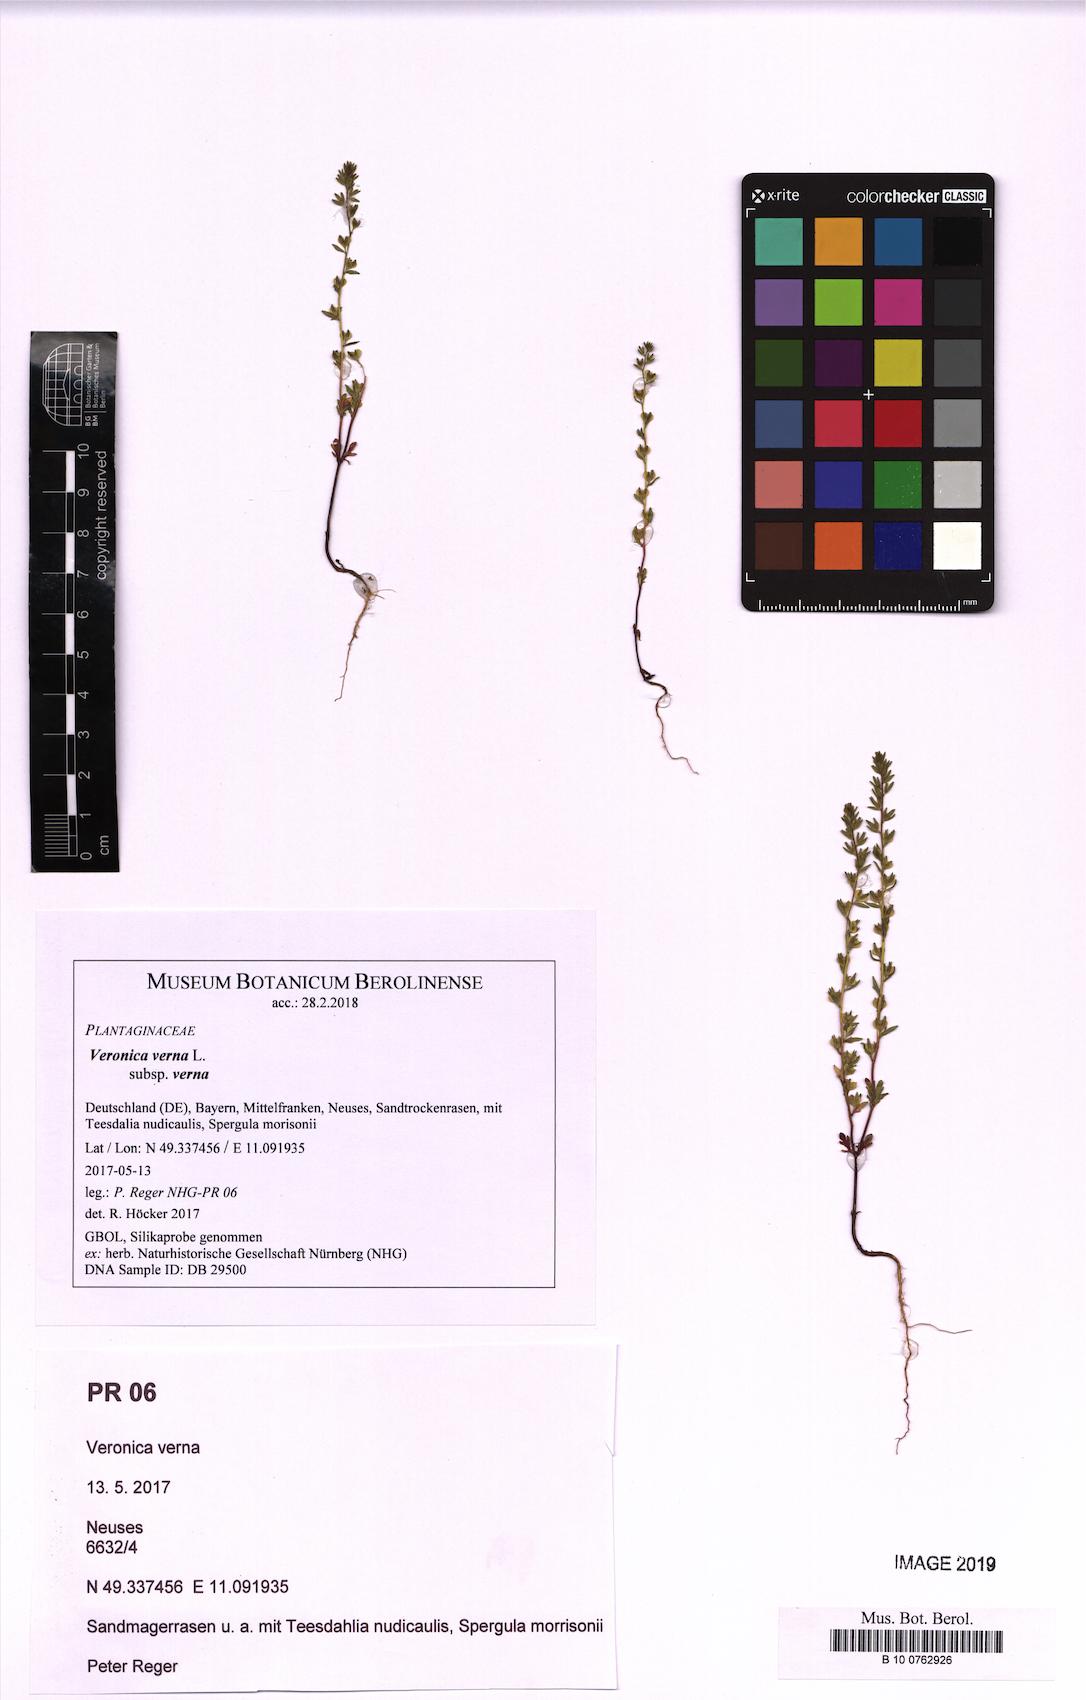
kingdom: Plantae
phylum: Tracheophyta
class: Magnoliopsida
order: Lamiales
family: Plantaginaceae
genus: Veronica
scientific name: Veronica verna
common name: Spring speedwell
